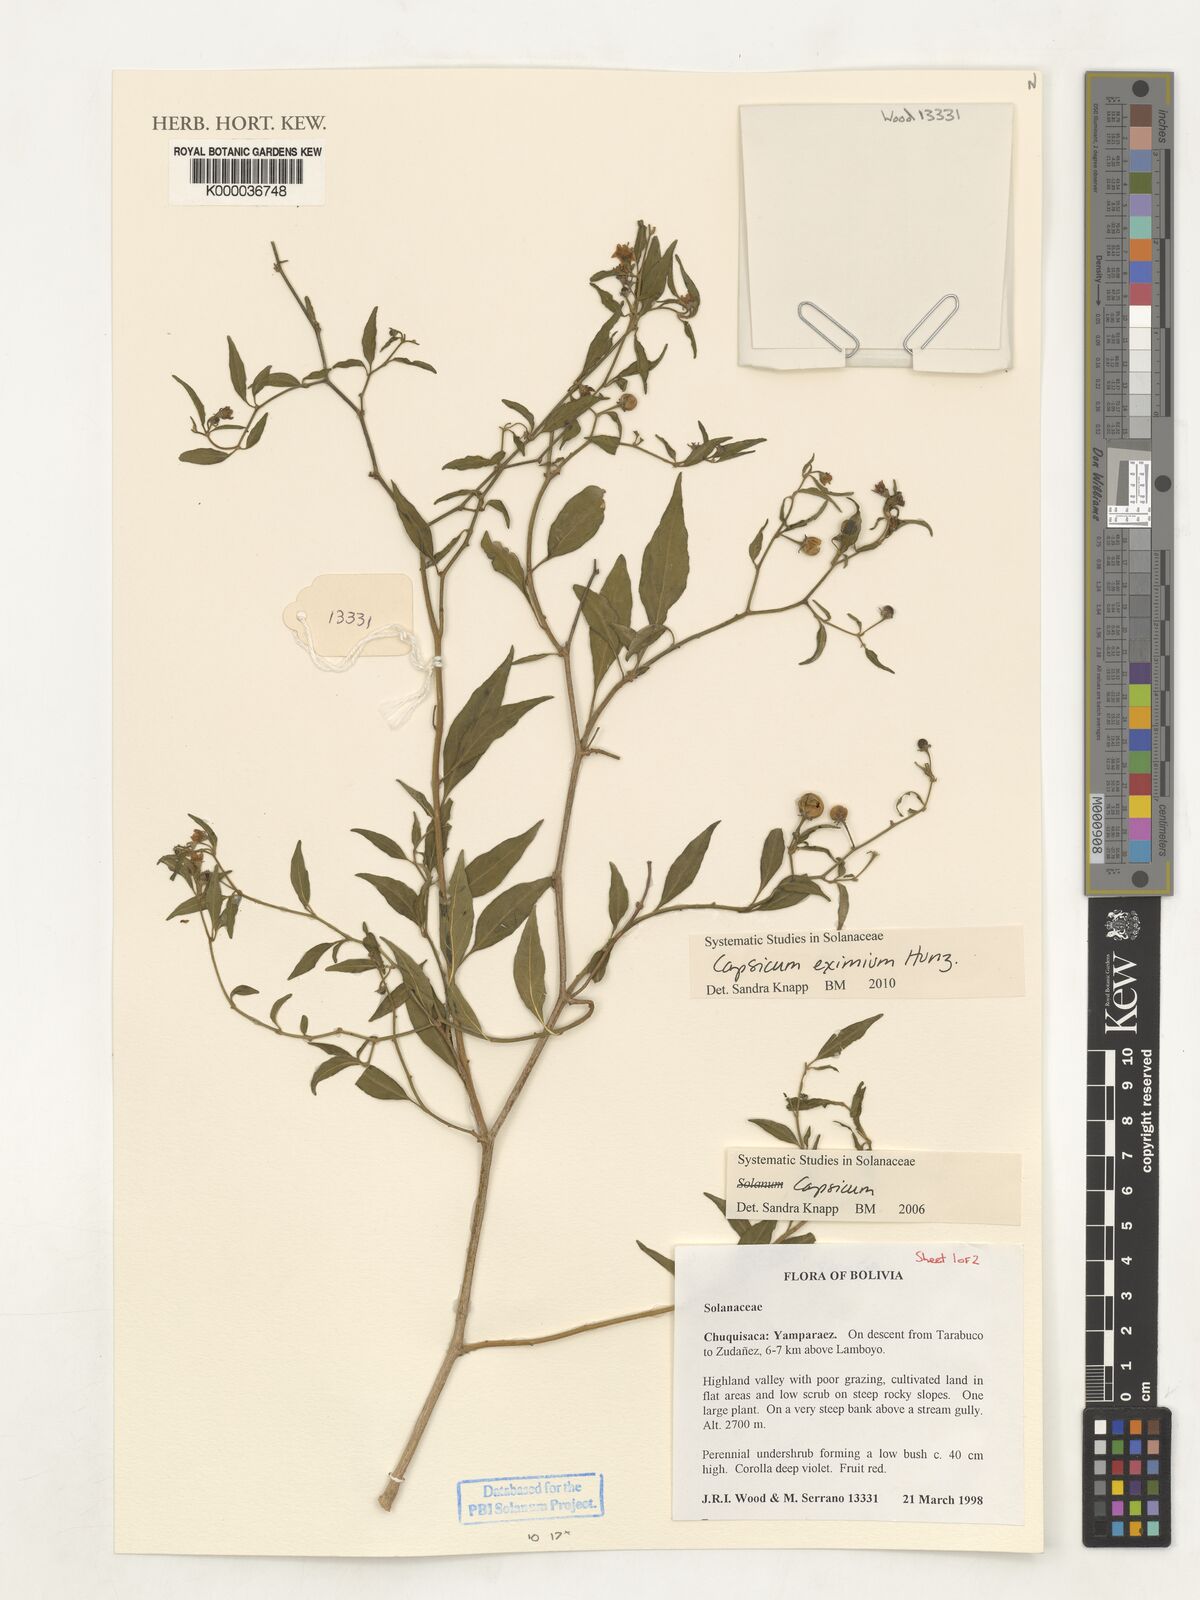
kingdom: Plantae
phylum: Tracheophyta
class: Magnoliopsida
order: Solanales
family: Solanaceae
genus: Capsicum
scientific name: Capsicum
